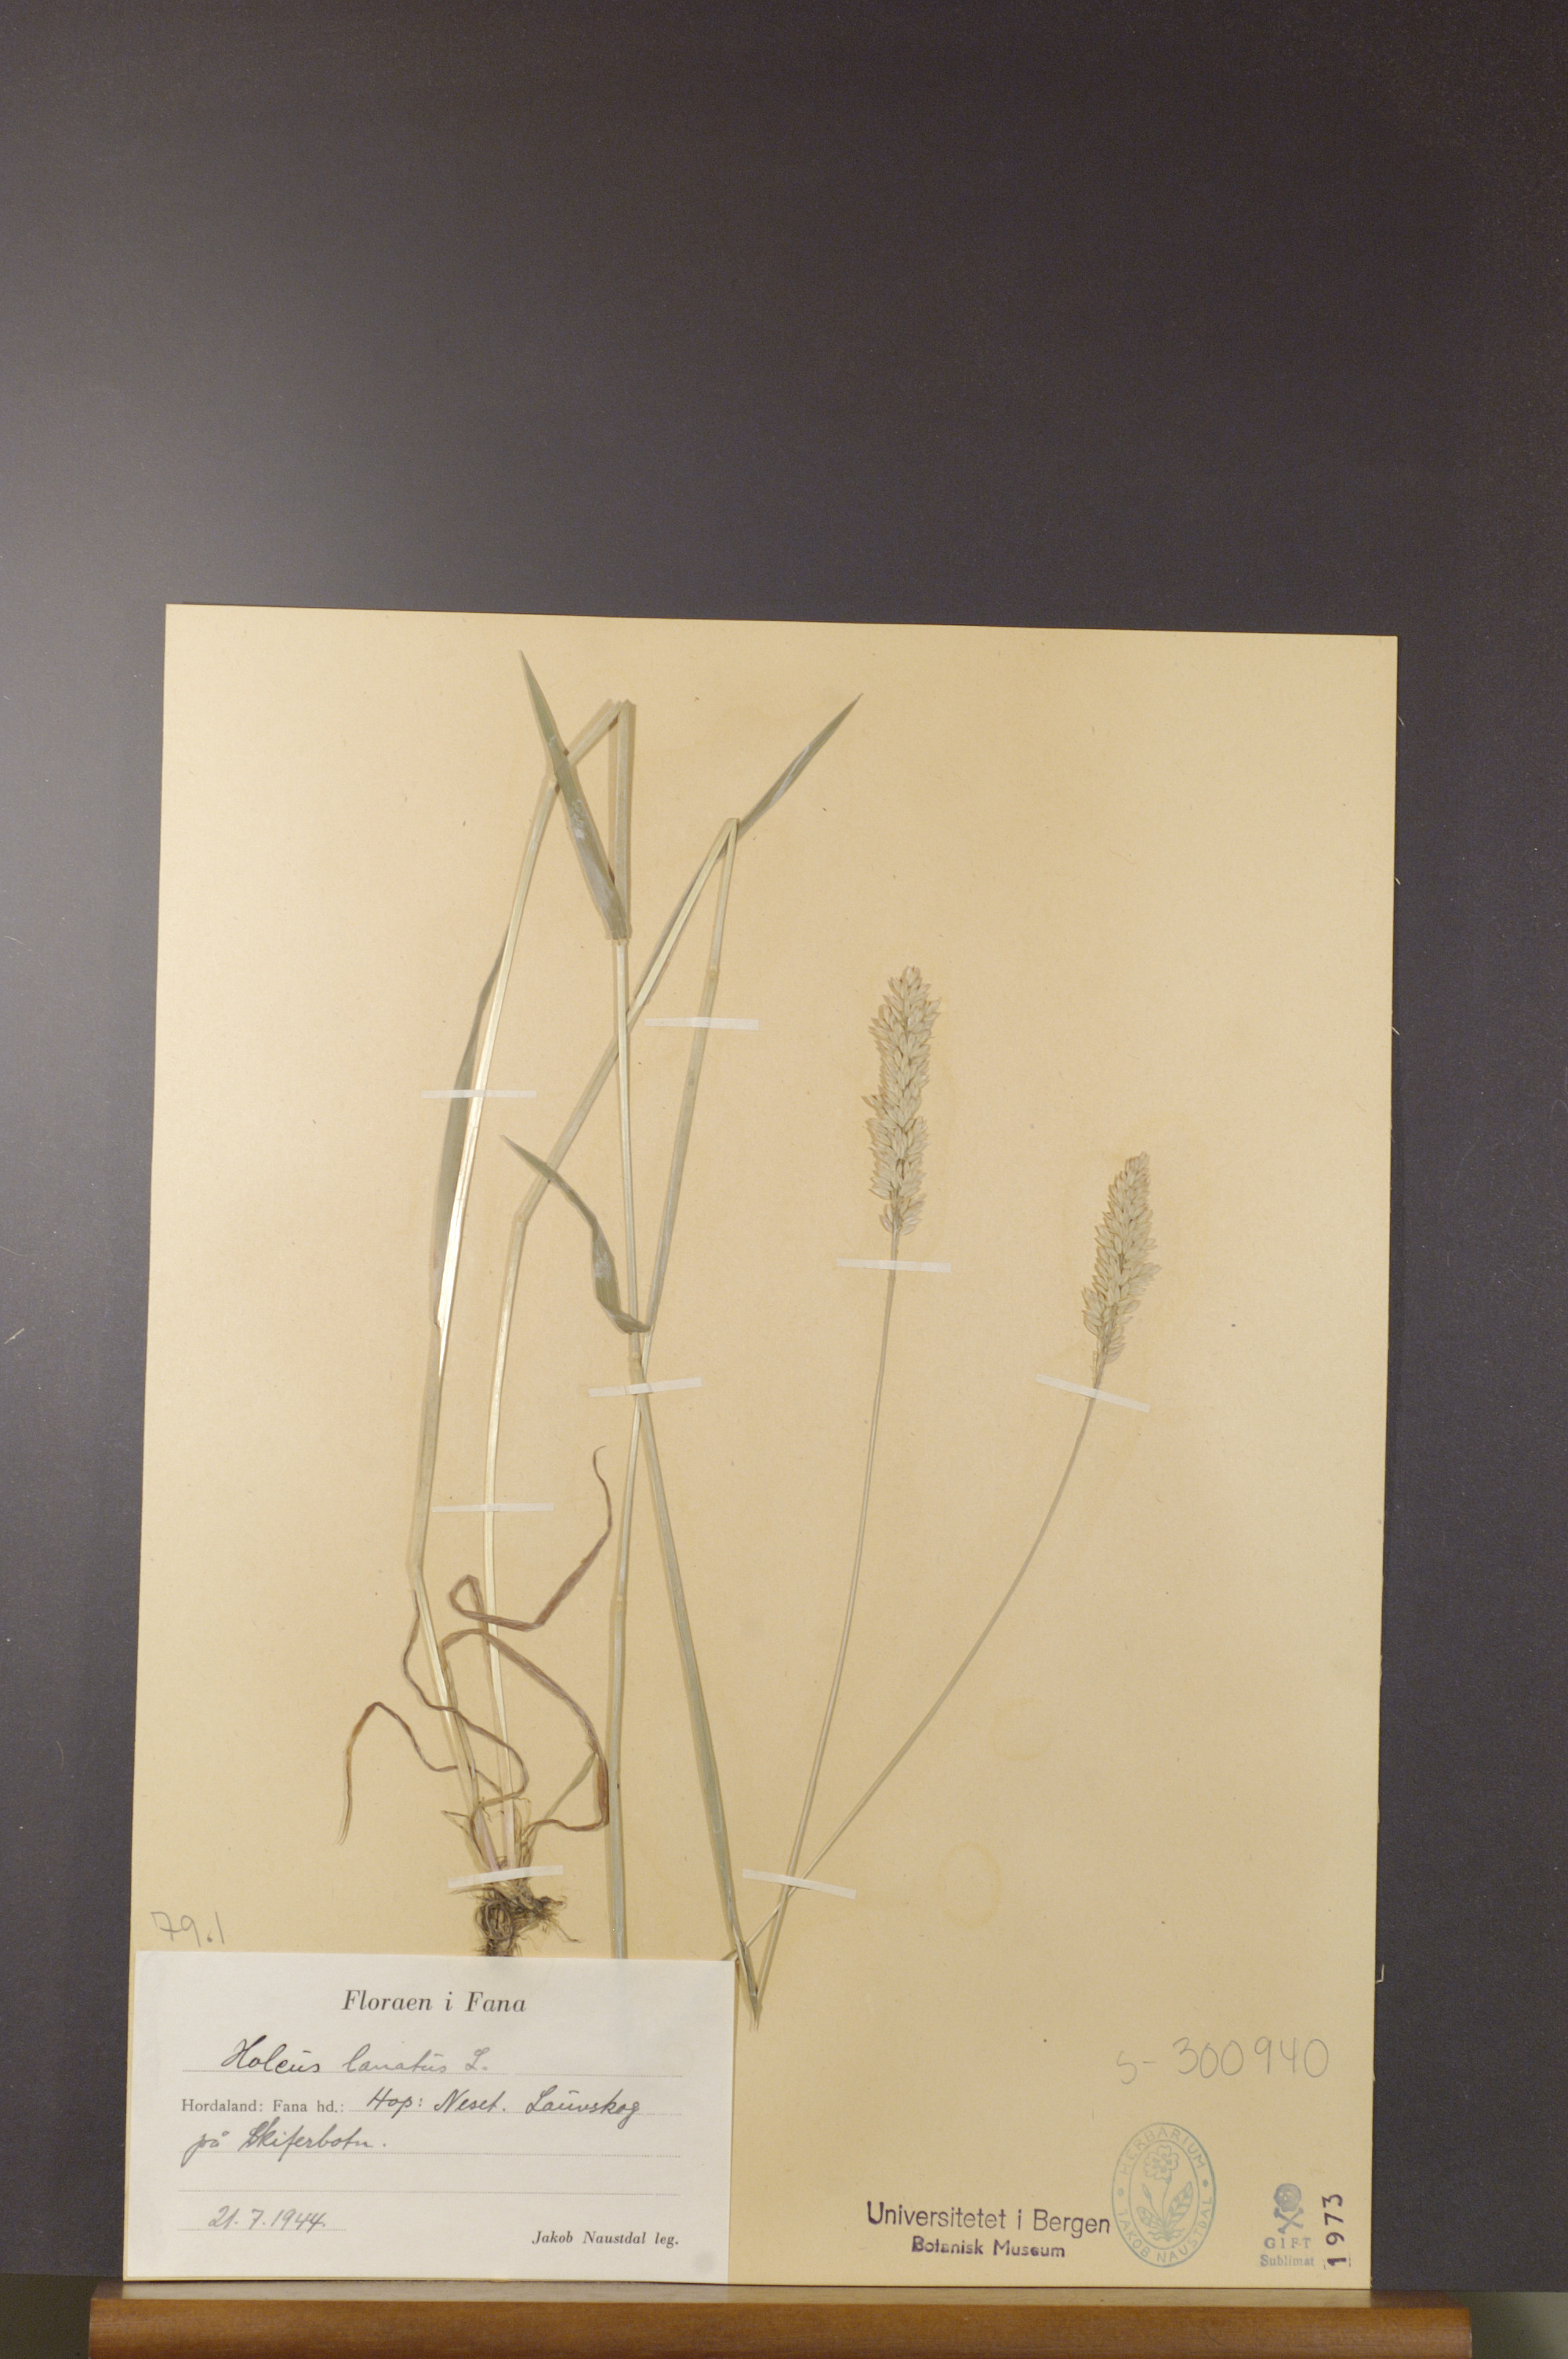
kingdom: Plantae
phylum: Tracheophyta
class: Liliopsida
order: Poales
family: Poaceae
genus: Holcus
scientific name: Holcus lanatus
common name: Yorkshire-fog
